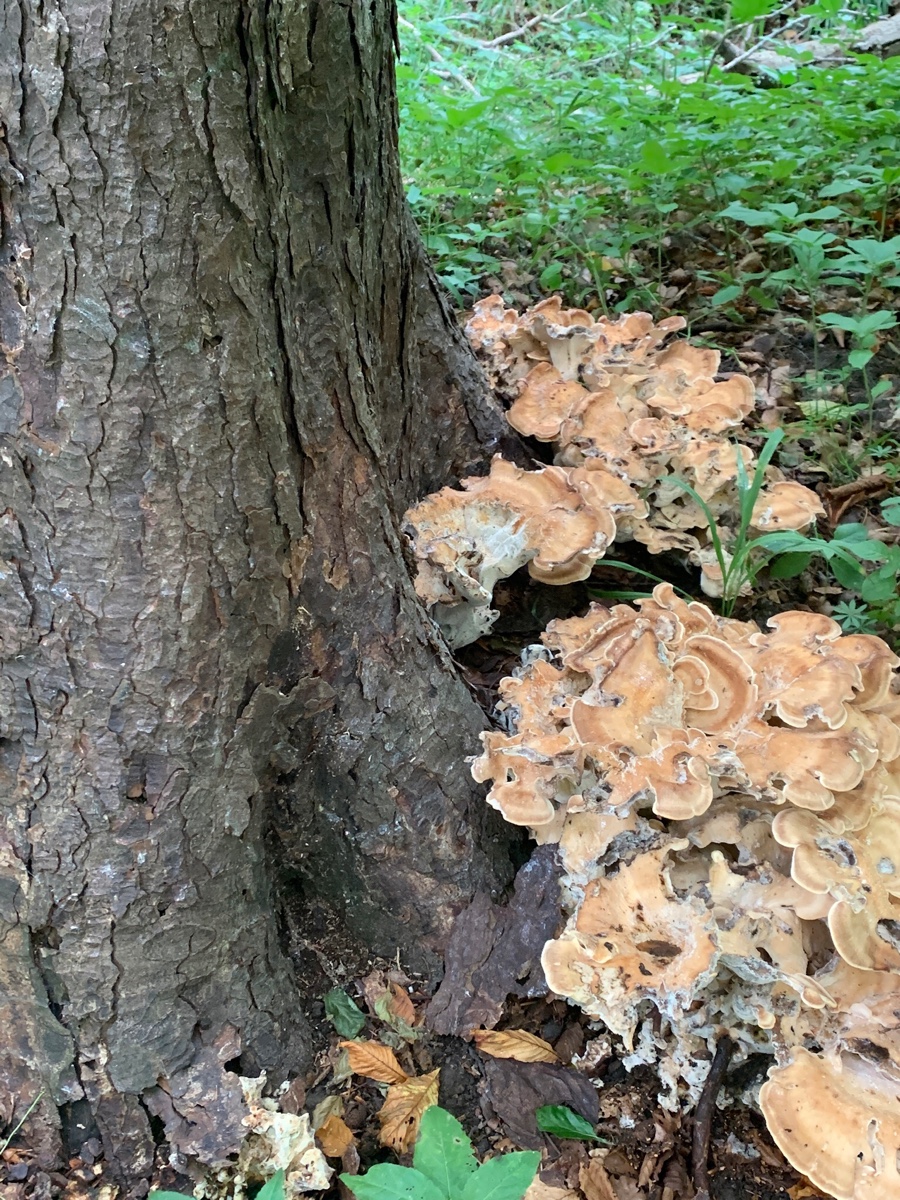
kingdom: Fungi
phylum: Basidiomycota
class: Agaricomycetes
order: Polyporales
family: Meripilaceae
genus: Meripilus
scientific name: Meripilus giganteus
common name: kæmpeporesvamp
